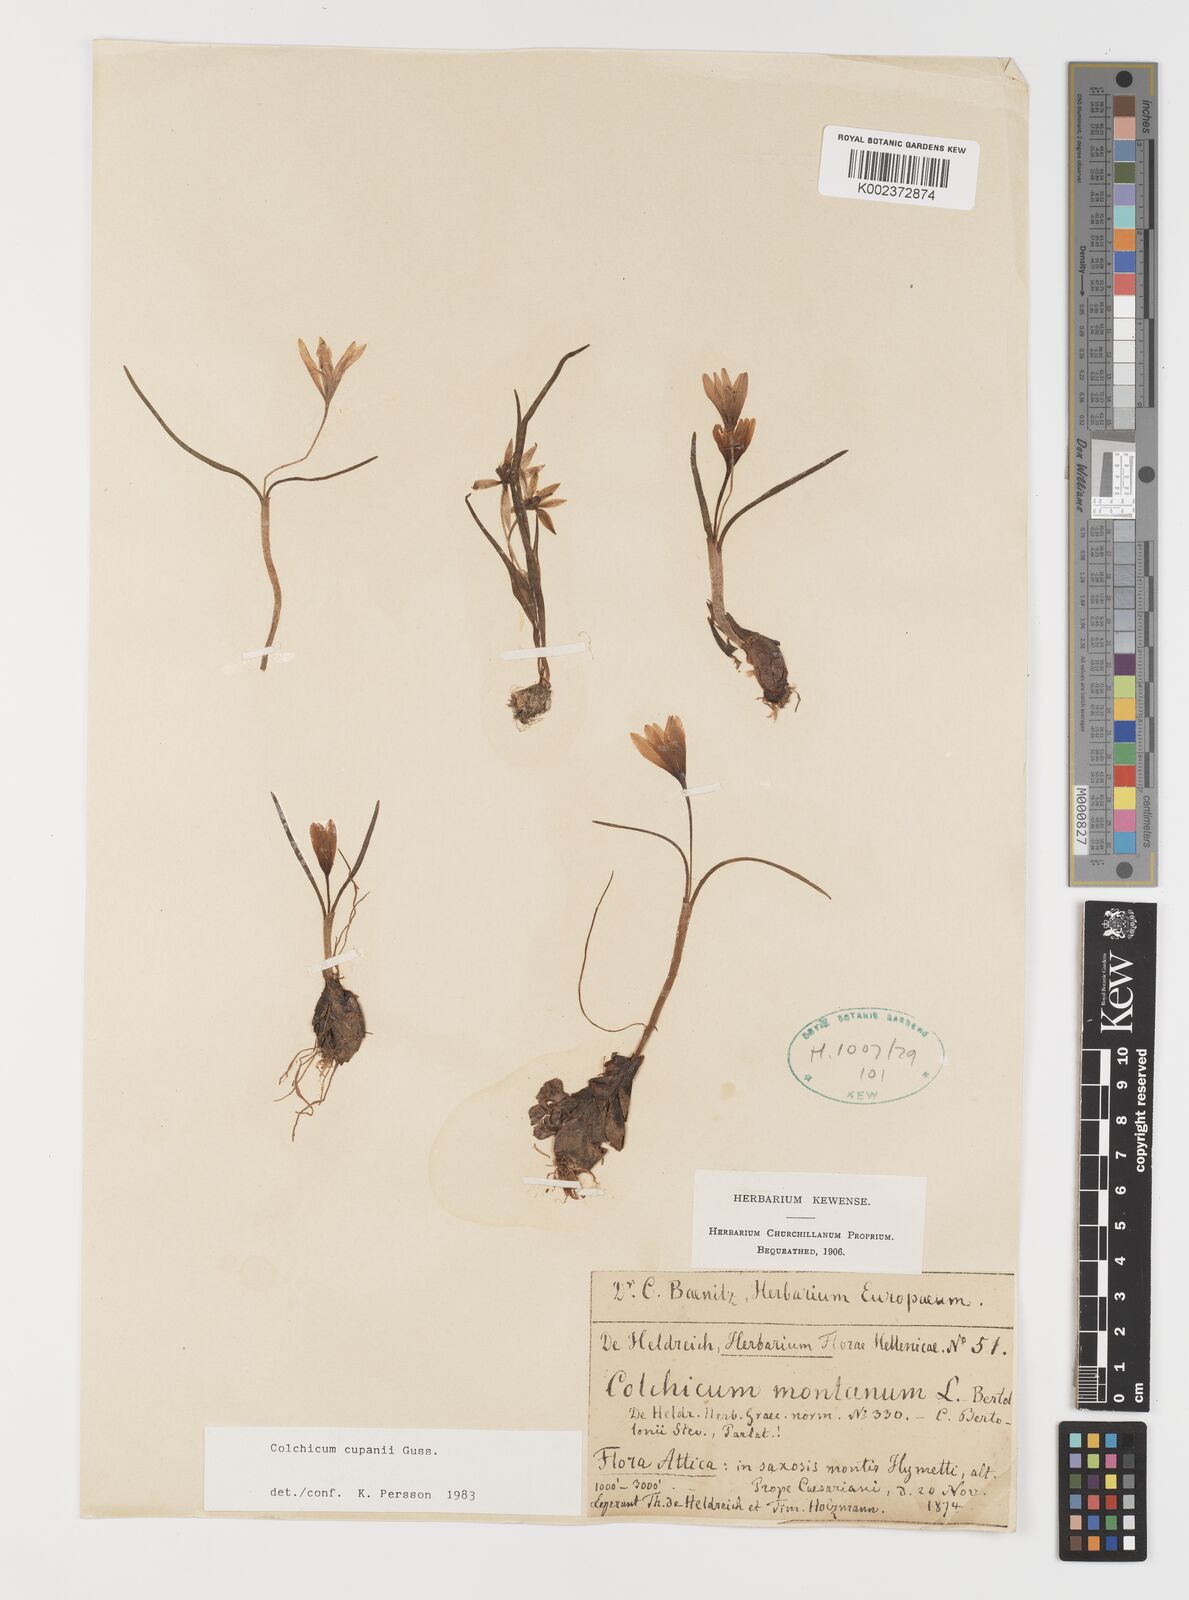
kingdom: Plantae
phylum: Tracheophyta
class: Liliopsida
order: Liliales
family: Colchicaceae
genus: Colchicum
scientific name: Colchicum cupanii
